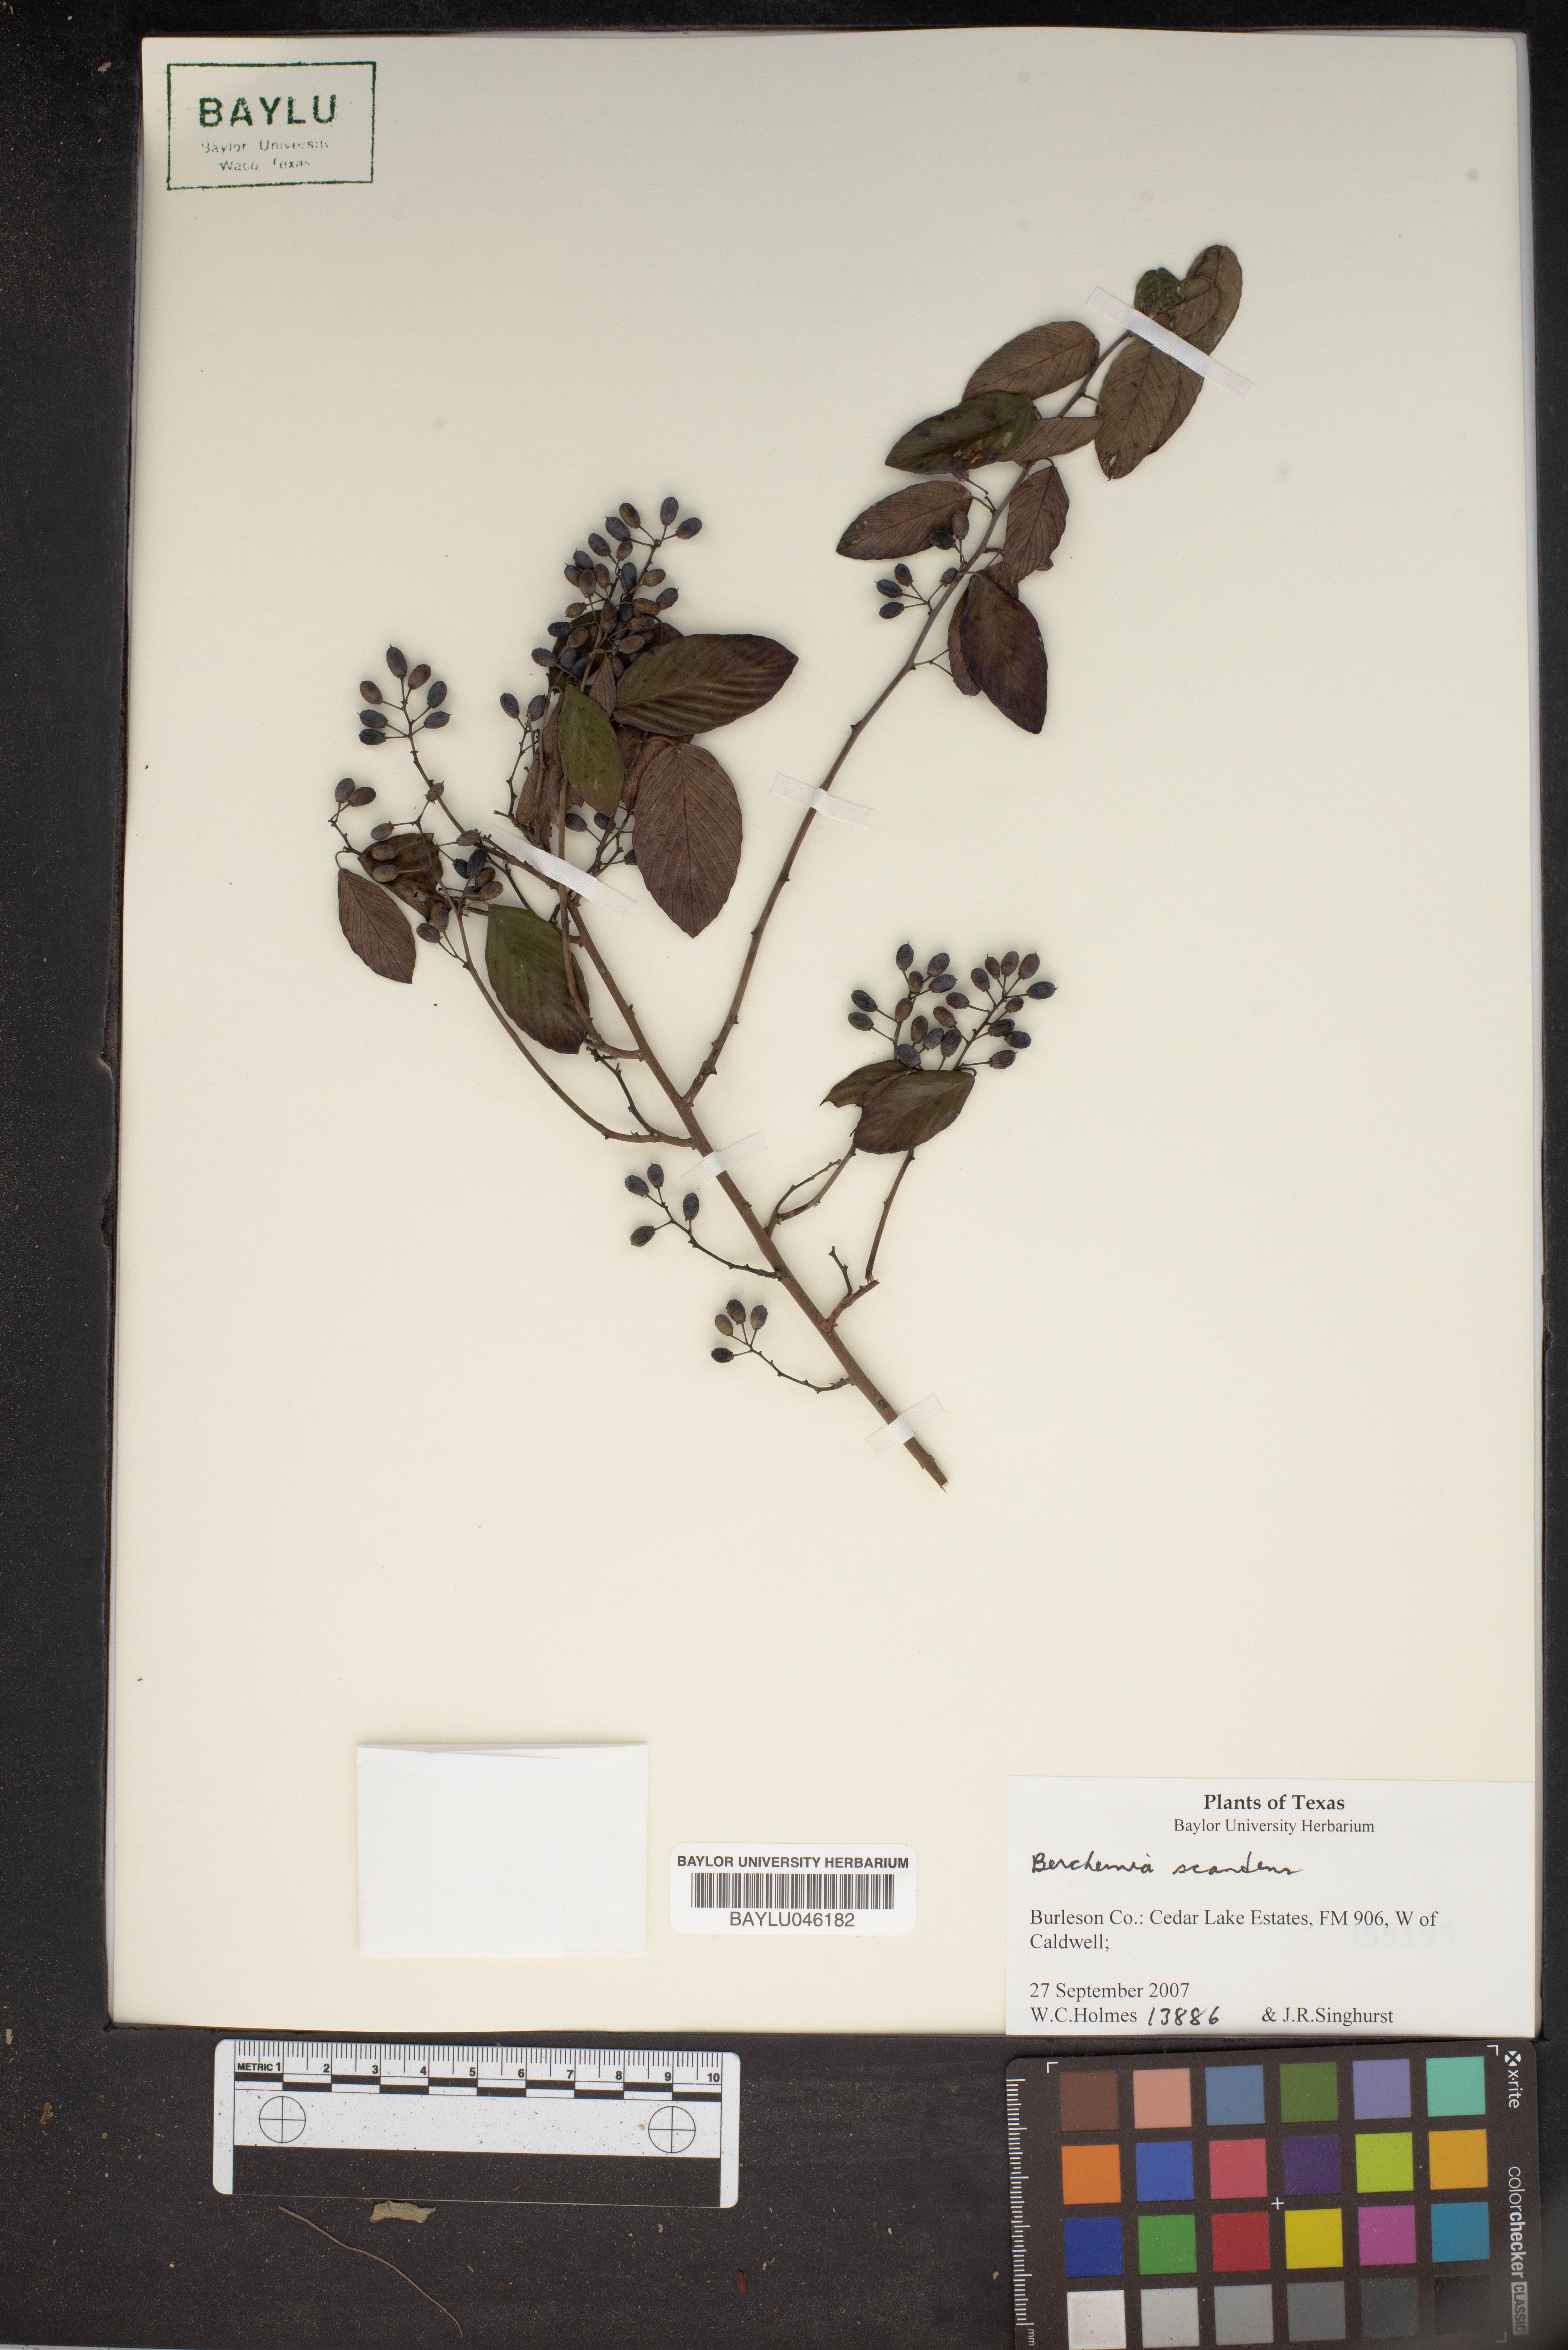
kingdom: Plantae
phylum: Tracheophyta
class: Magnoliopsida
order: Rosales
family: Rhamnaceae
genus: Berchemia
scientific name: Berchemia scandens
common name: Supplejack
